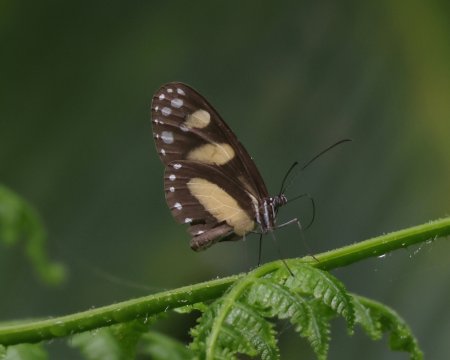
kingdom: Animalia
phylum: Arthropoda
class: Insecta
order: Lepidoptera
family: Nymphalidae
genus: Oleria
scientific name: Oleria zelica
